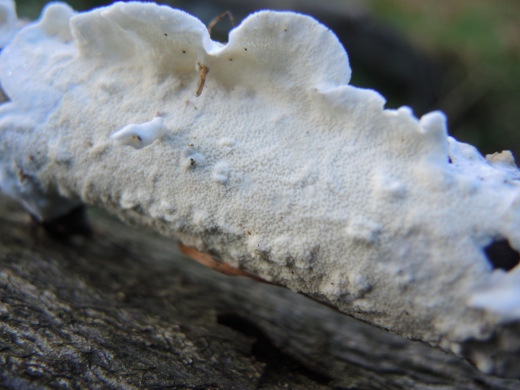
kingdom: Fungi
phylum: Basidiomycota
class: Agaricomycetes
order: Polyporales
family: Irpicaceae
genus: Byssomerulius
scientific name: Byssomerulius corium
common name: læder-åresvamp
